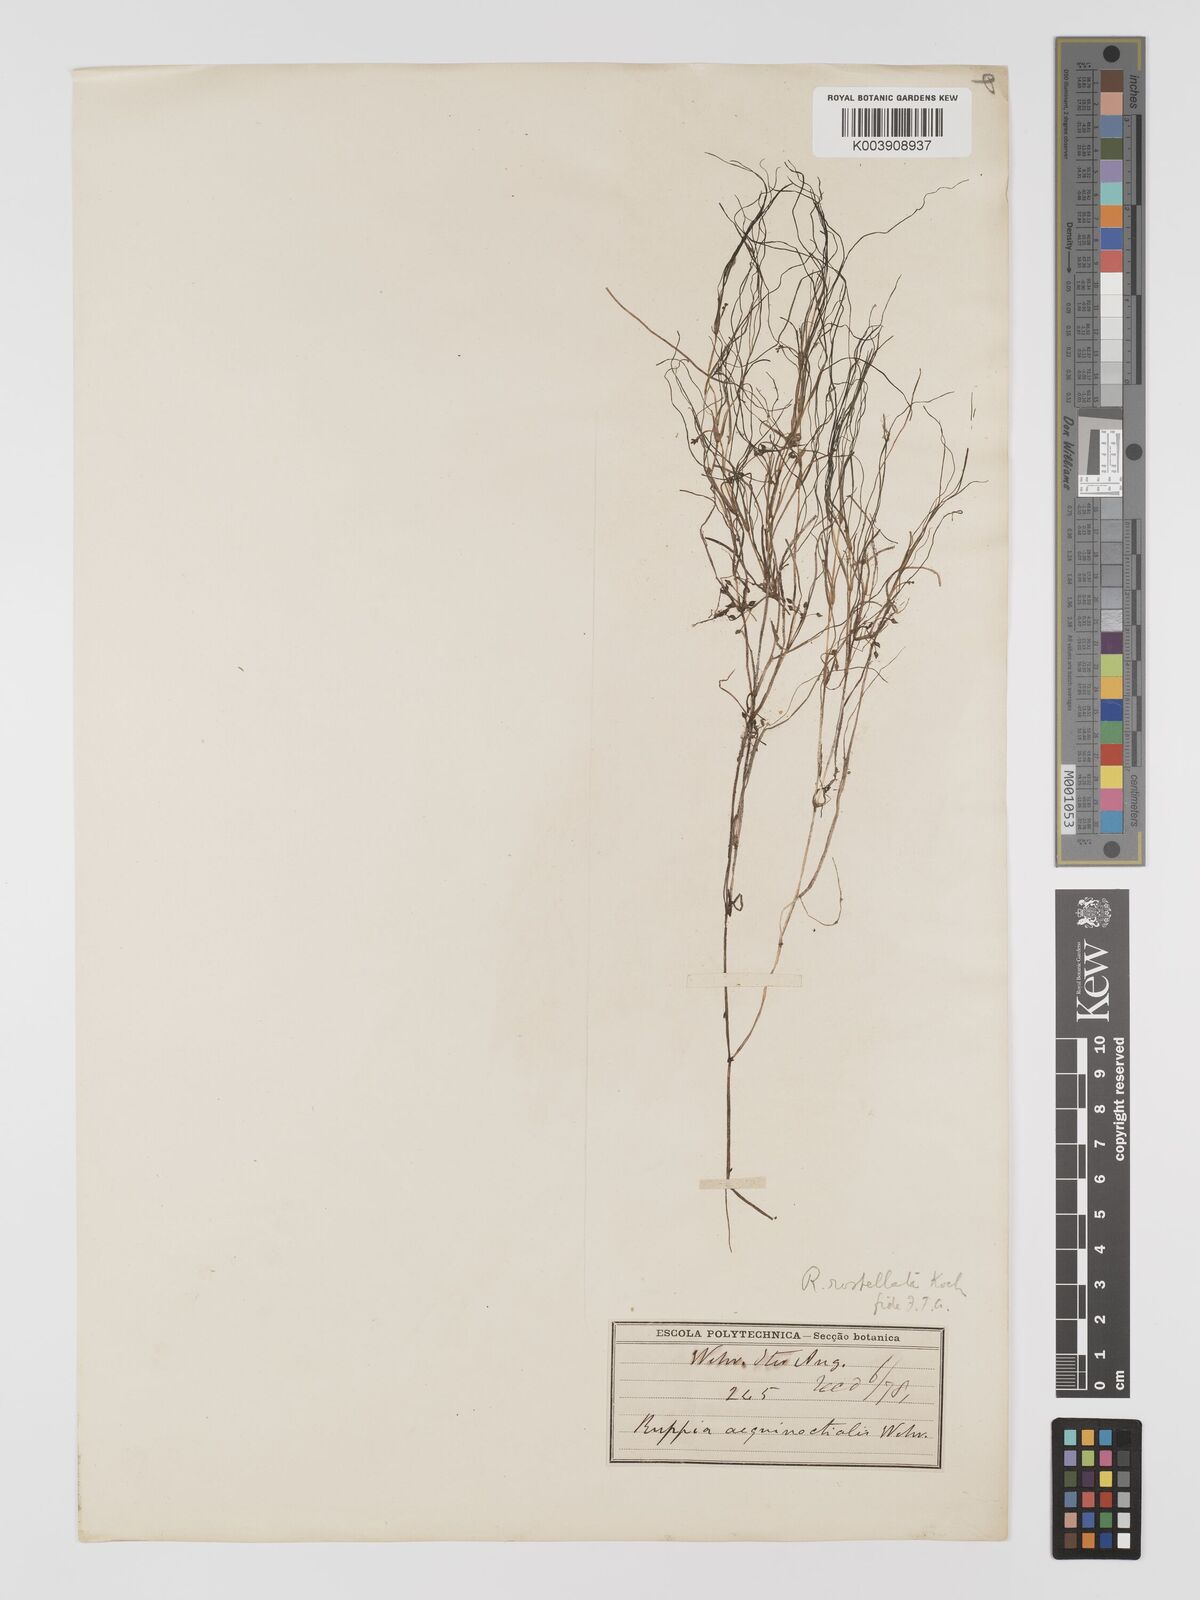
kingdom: Plantae
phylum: Tracheophyta
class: Liliopsida
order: Alismatales
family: Ruppiaceae
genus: Ruppia
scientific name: Ruppia
